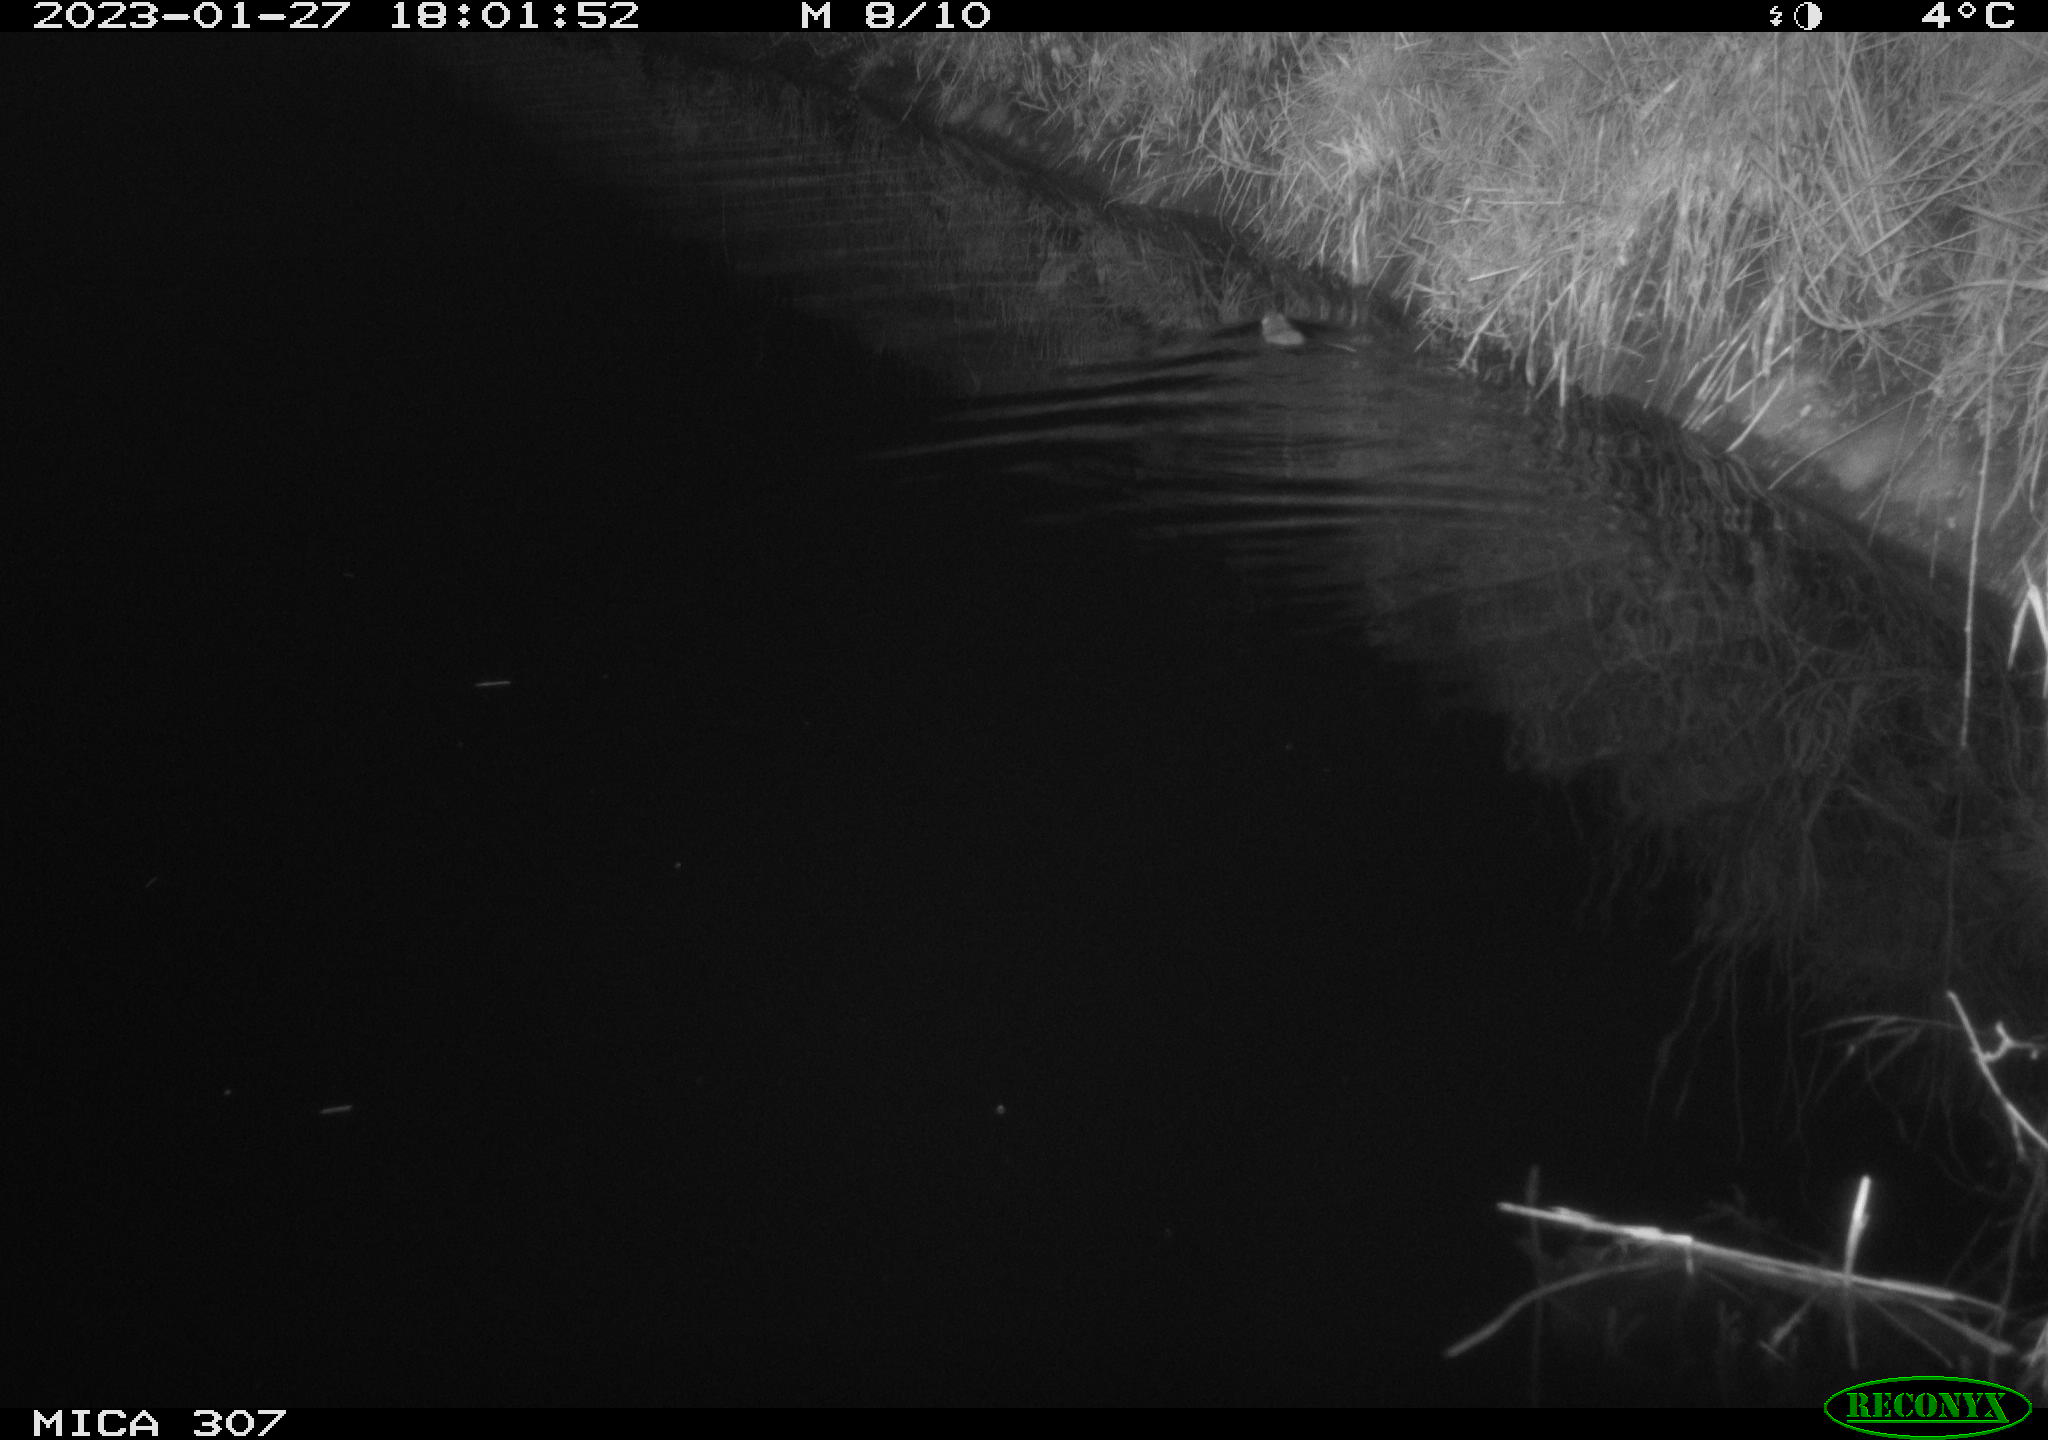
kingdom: Animalia
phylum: Chordata
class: Mammalia
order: Rodentia
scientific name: Rodentia
